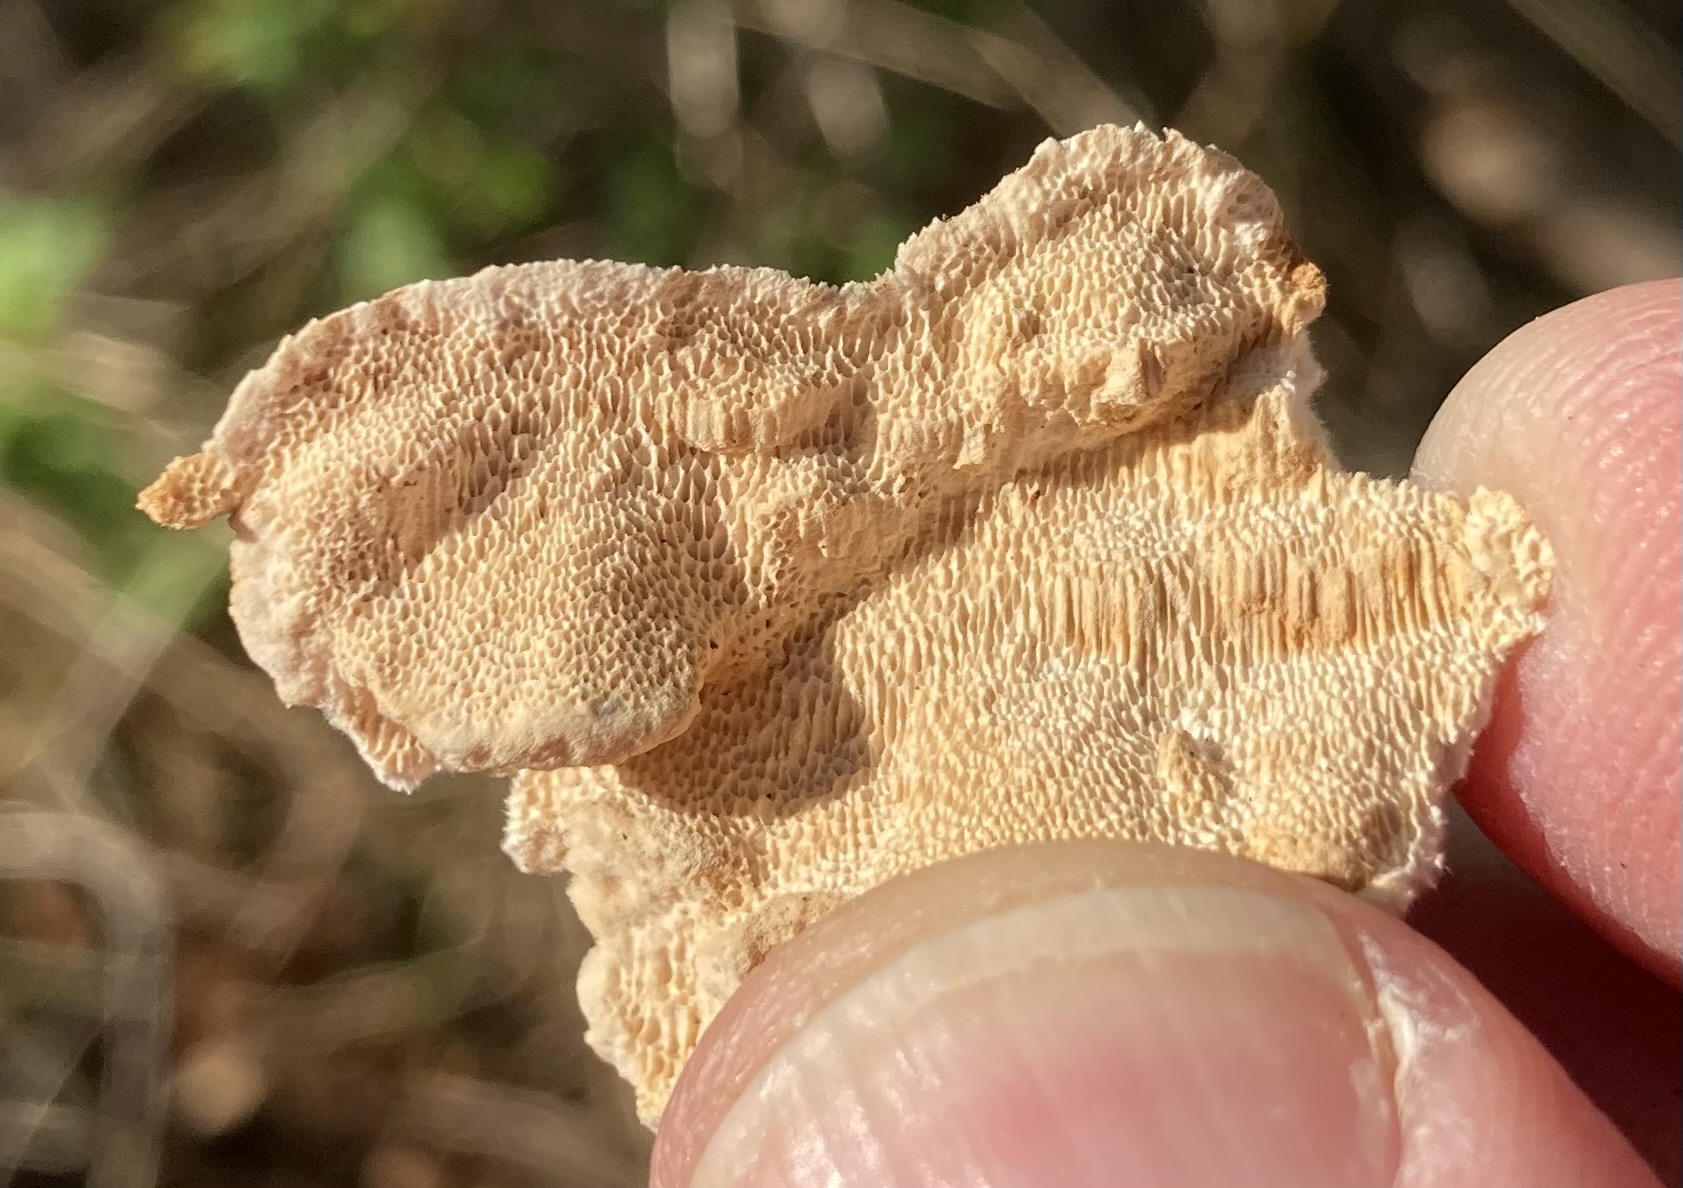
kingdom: Fungi
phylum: Basidiomycota
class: Agaricomycetes
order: Polyporales
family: Fomitopsidaceae
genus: Neoantrodia
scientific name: Neoantrodia serialis
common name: række-sejporesvamp
